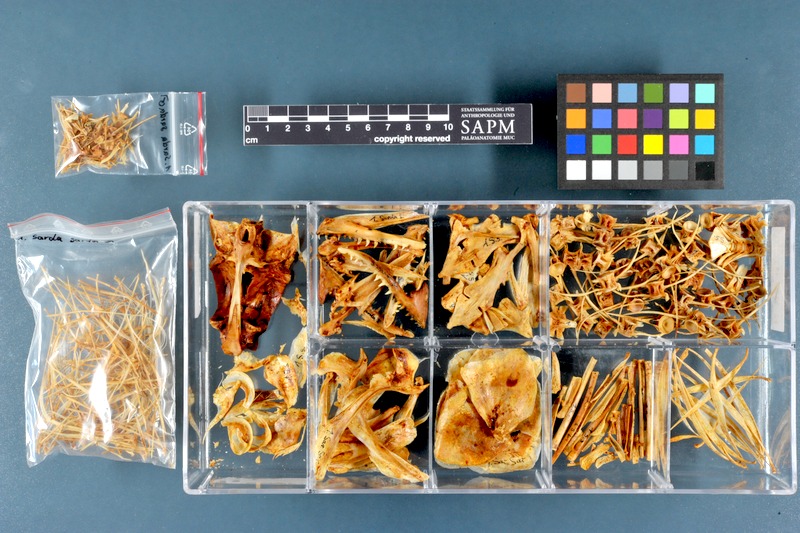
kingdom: Animalia
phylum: Chordata
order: Perciformes
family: Scombridae
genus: Sarda
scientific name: Sarda sarda
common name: Atlantic bonito
